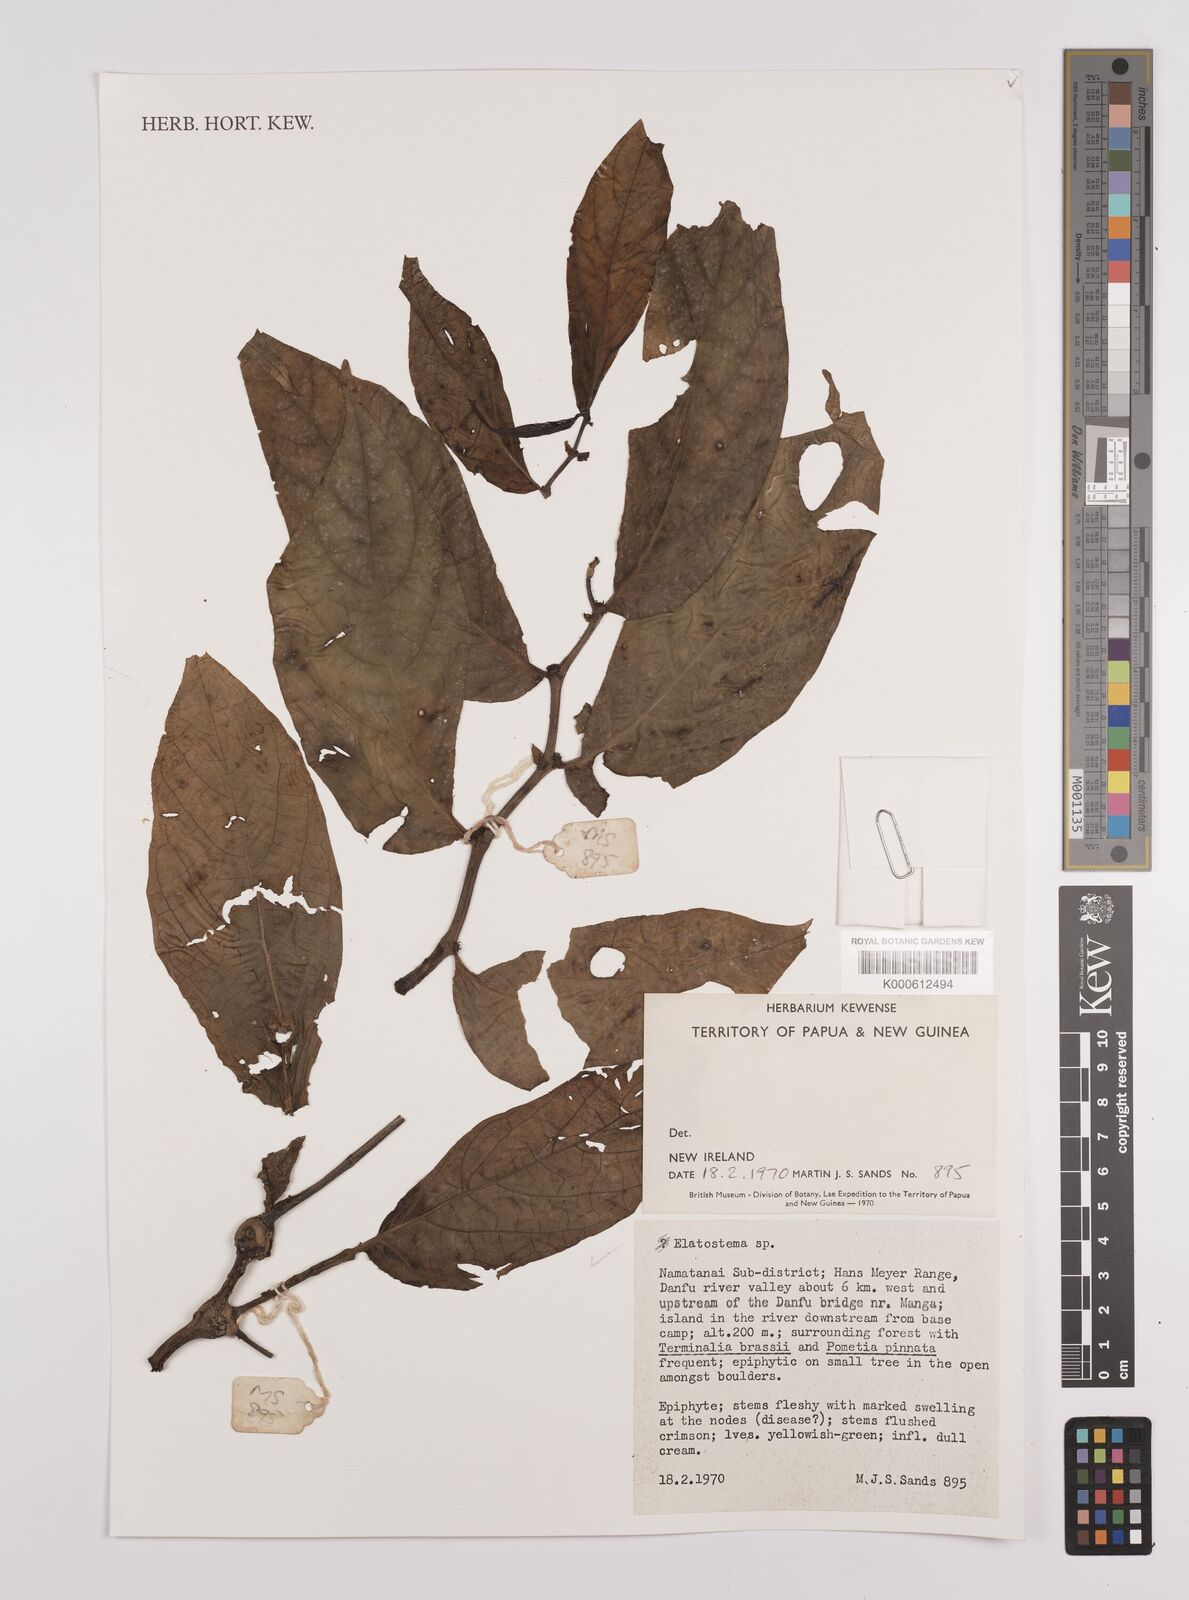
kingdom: Plantae
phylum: Tracheophyta
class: Magnoliopsida
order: Rosales
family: Urticaceae
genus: Elatostema
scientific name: Elatostema
